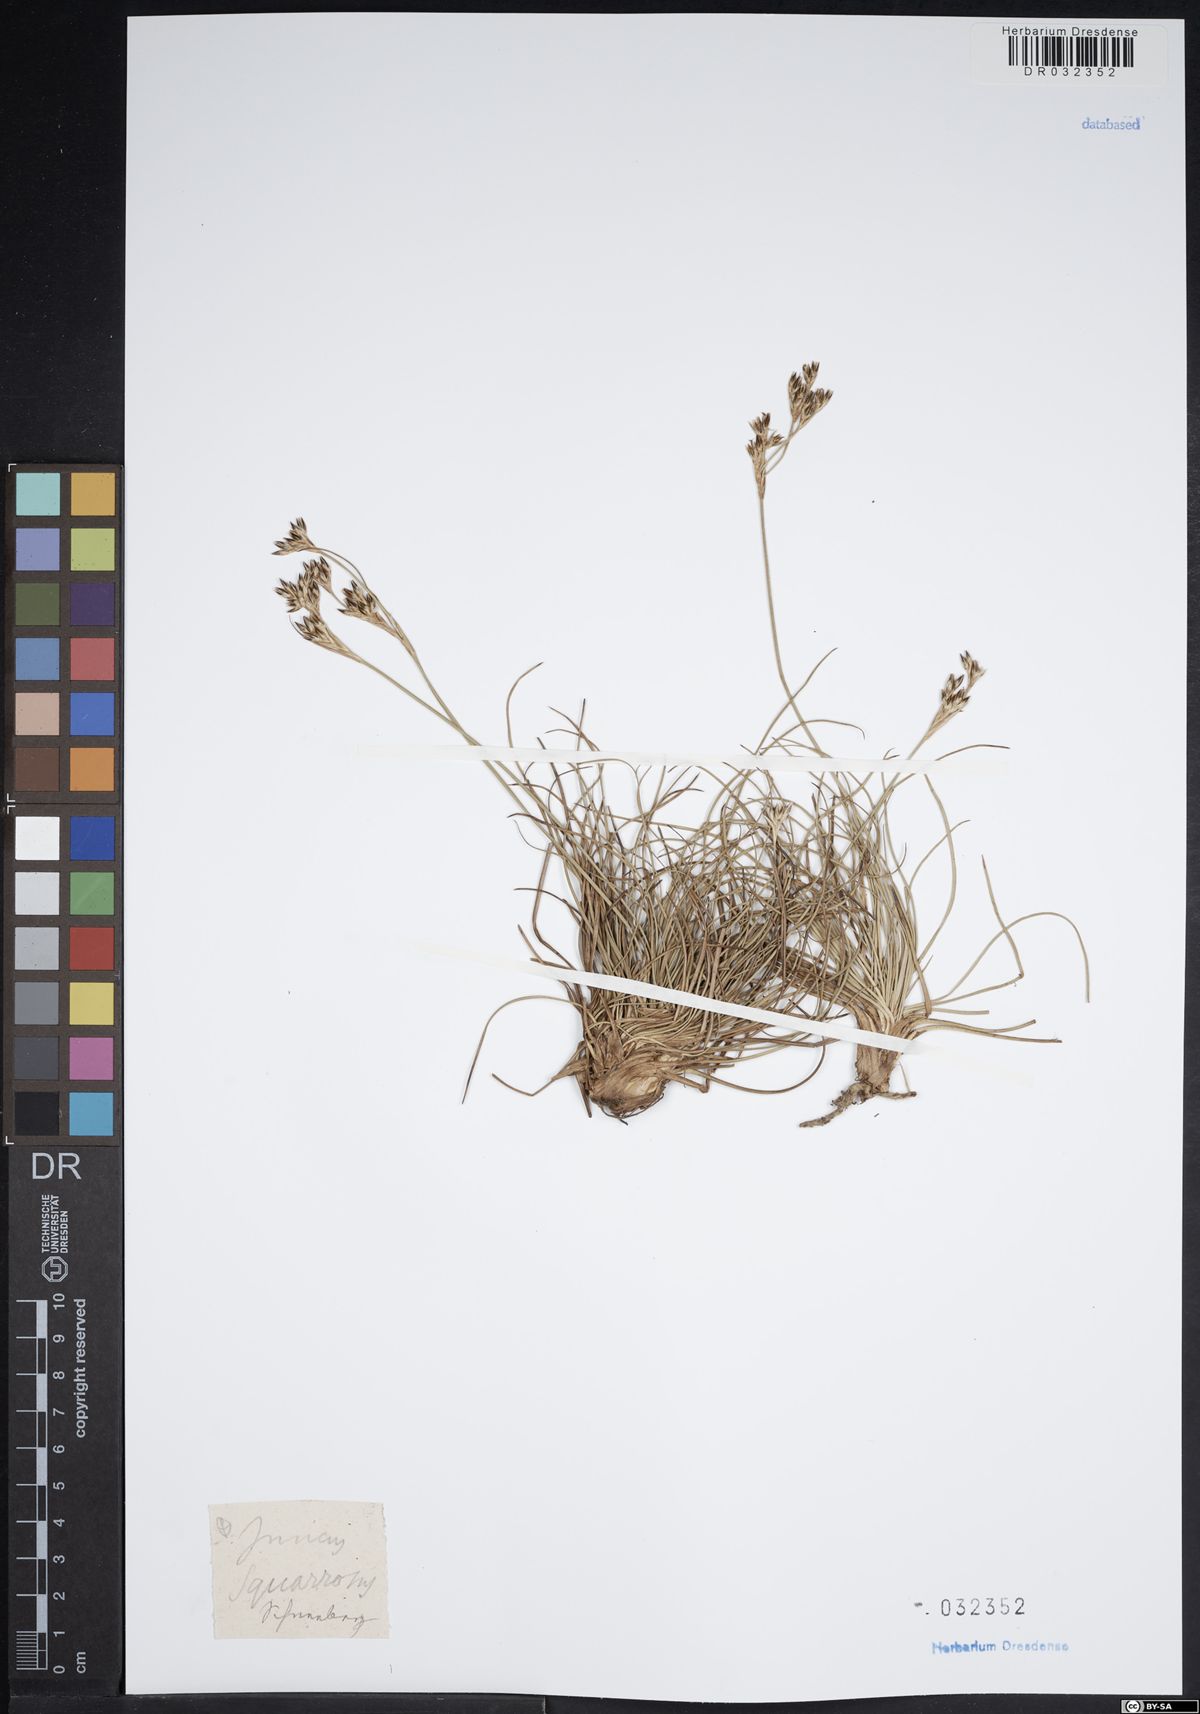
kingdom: Plantae
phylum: Tracheophyta
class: Liliopsida
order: Poales
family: Juncaceae
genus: Juncus
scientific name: Juncus squarrosus
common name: Heath rush
